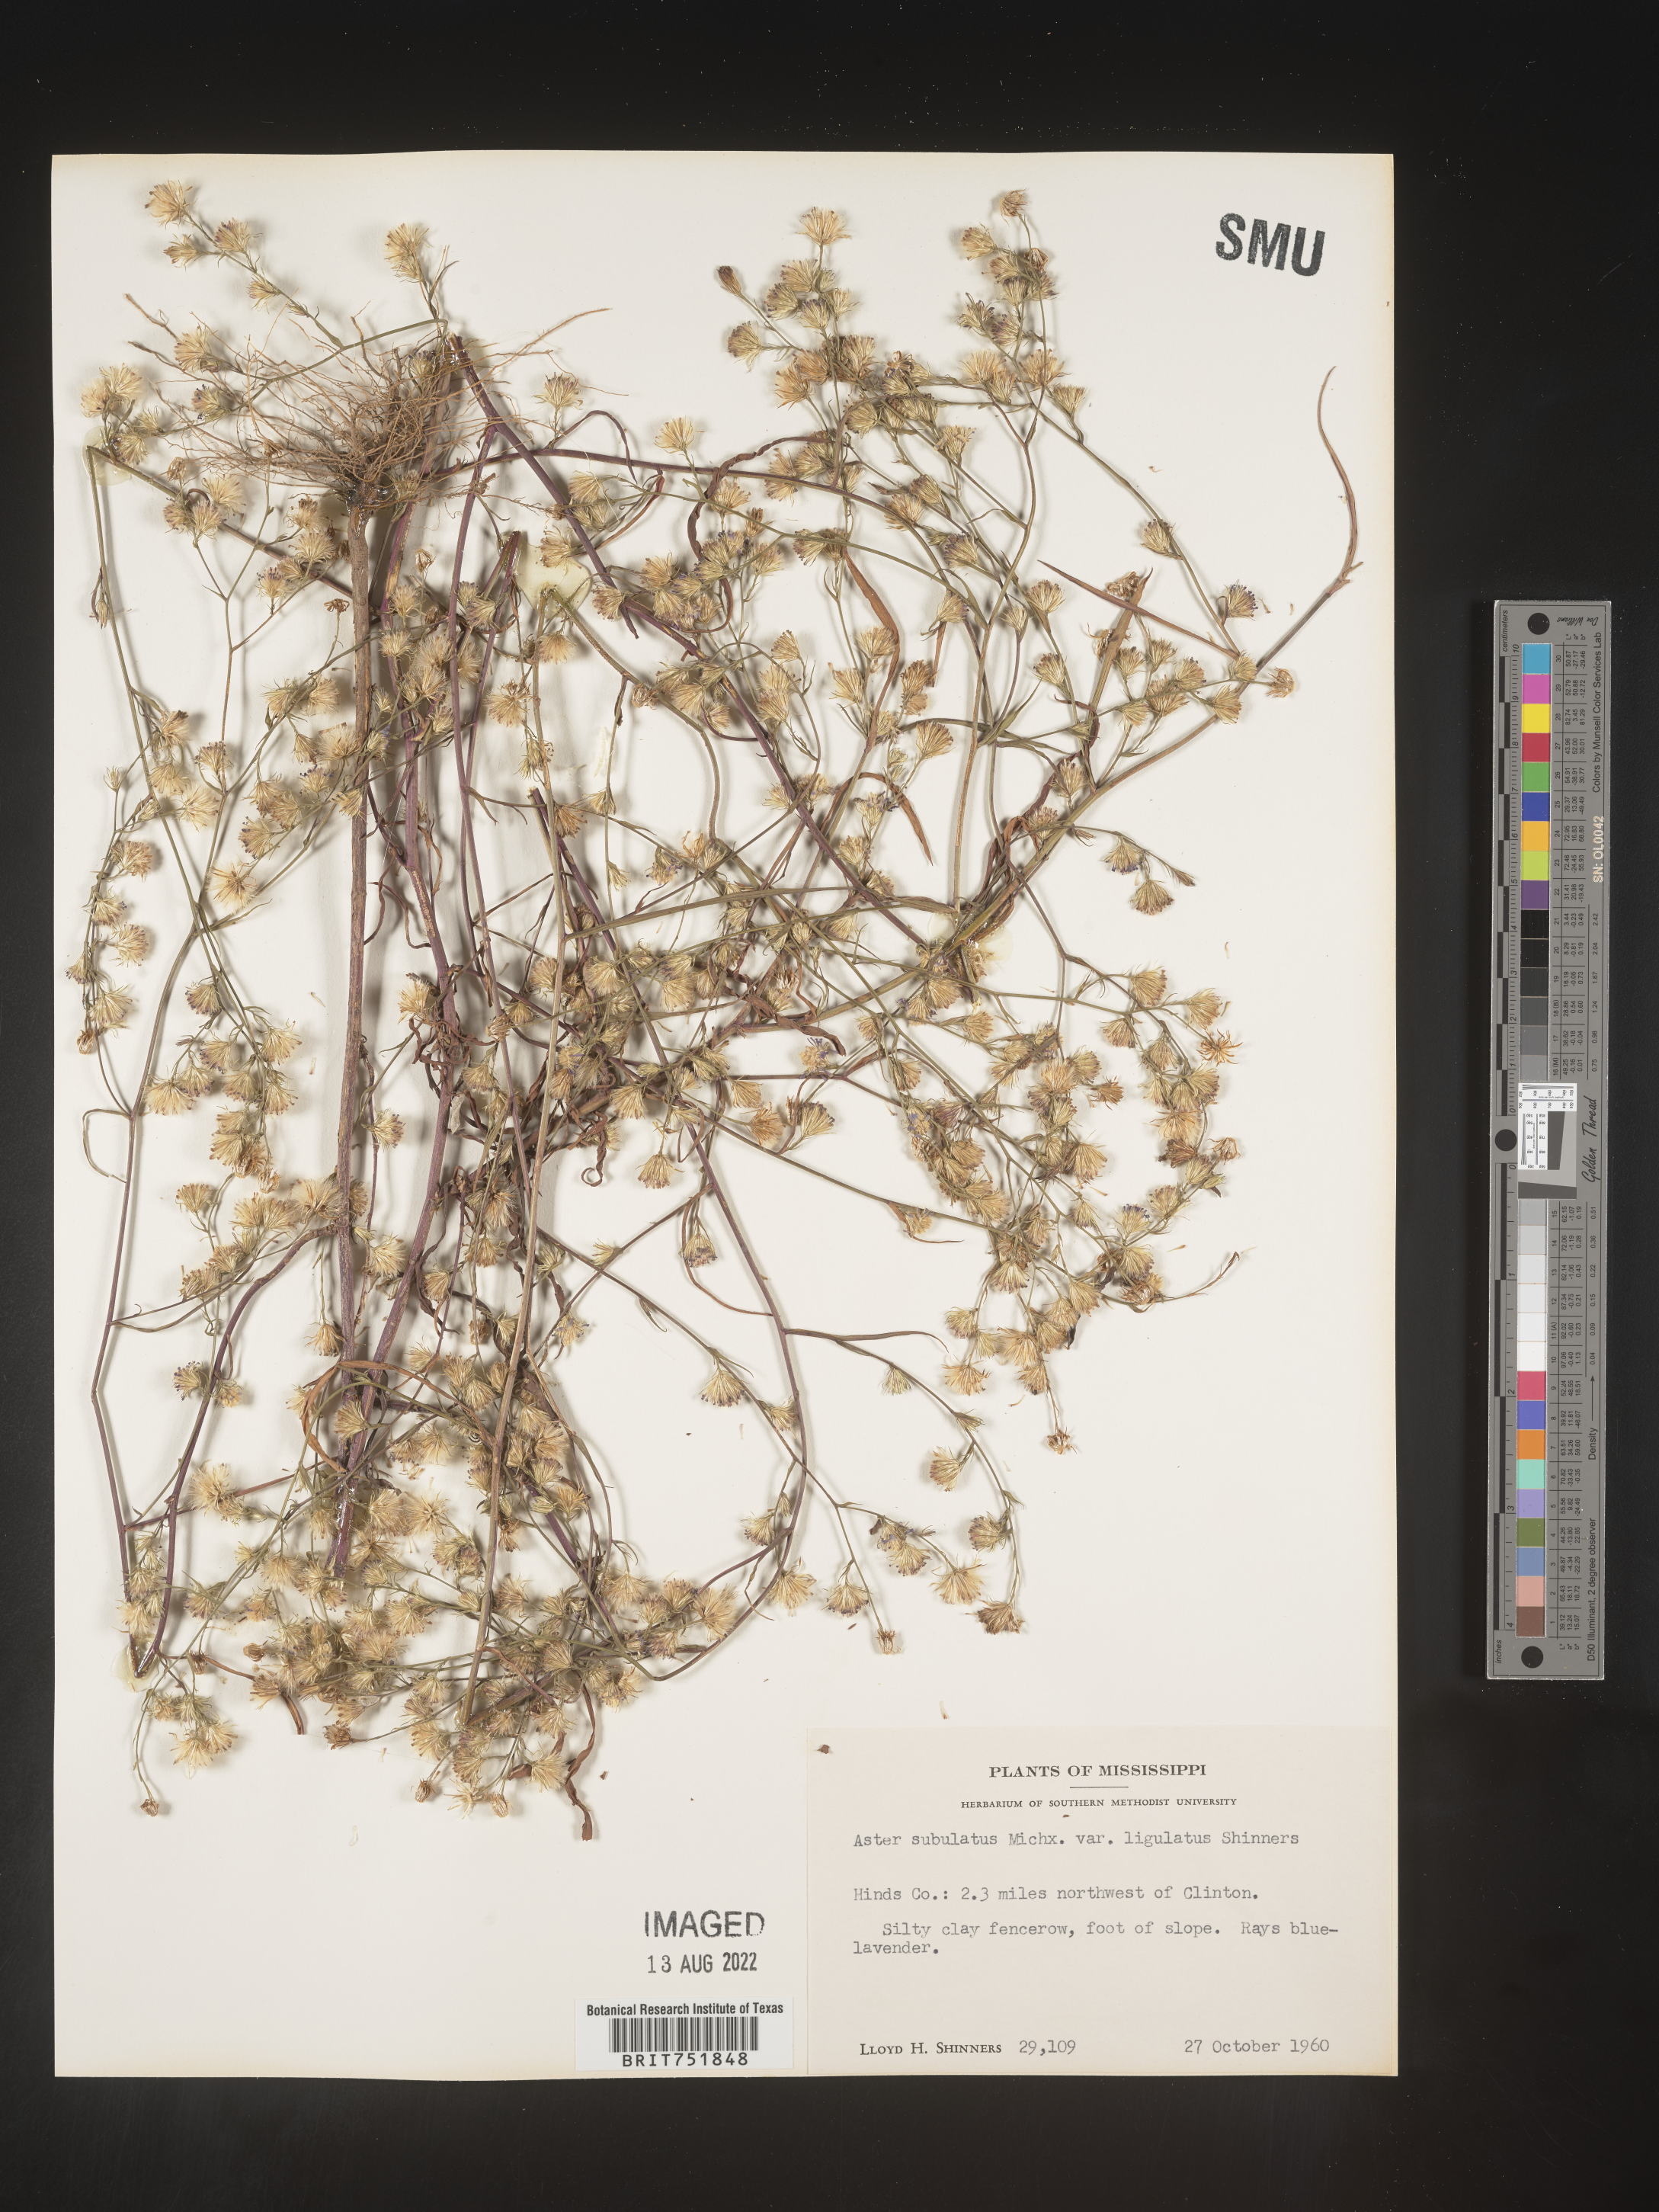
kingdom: Plantae
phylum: Tracheophyta
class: Magnoliopsida
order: Asterales
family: Asteraceae
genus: Symphyotrichum
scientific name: Symphyotrichum divaricatum
